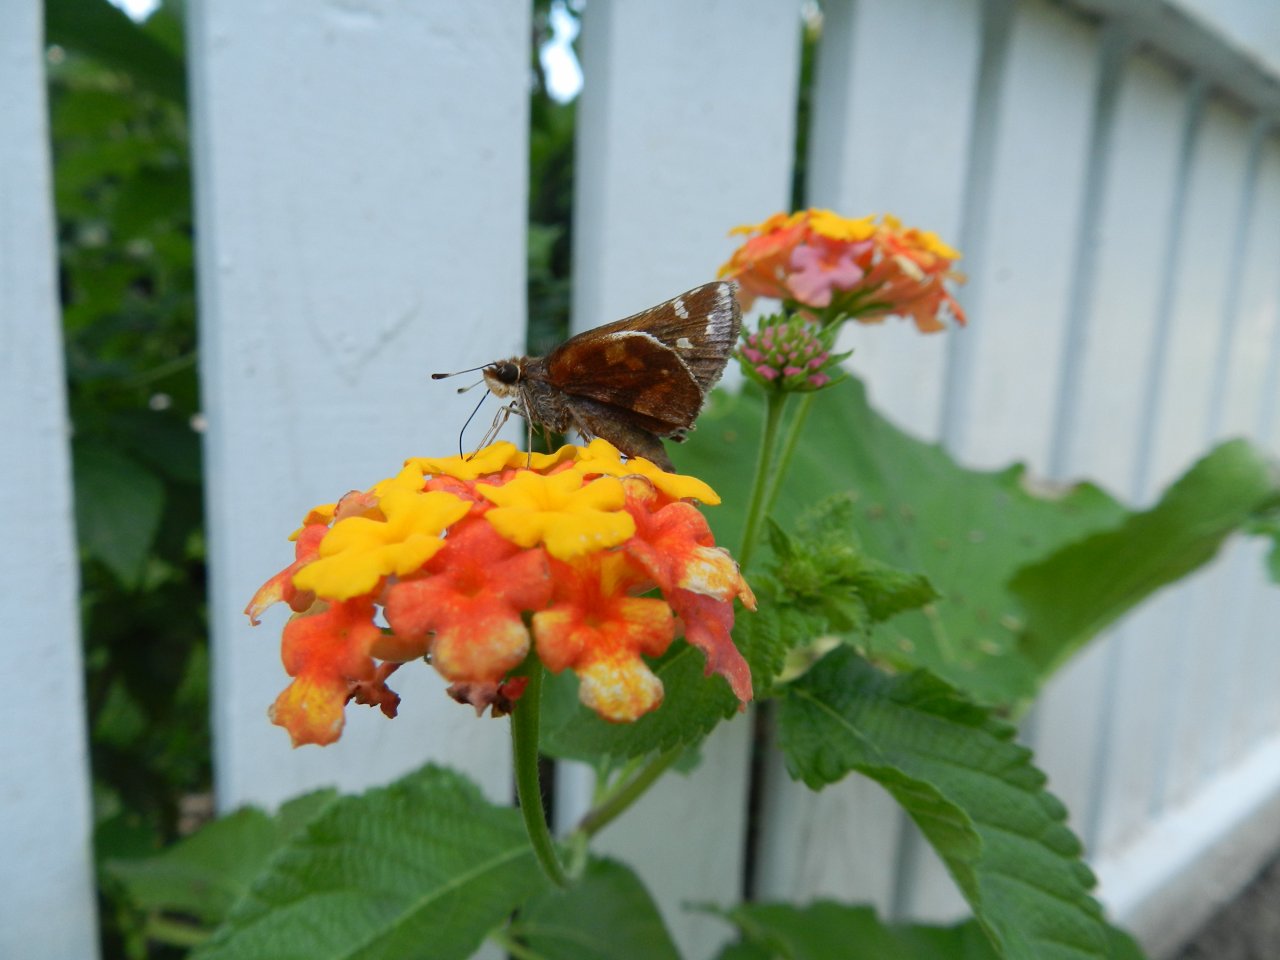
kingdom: Animalia
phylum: Arthropoda
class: Insecta
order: Lepidoptera
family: Hesperiidae
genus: Lon
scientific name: Lon zabulon
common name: Zabulon Skipper
